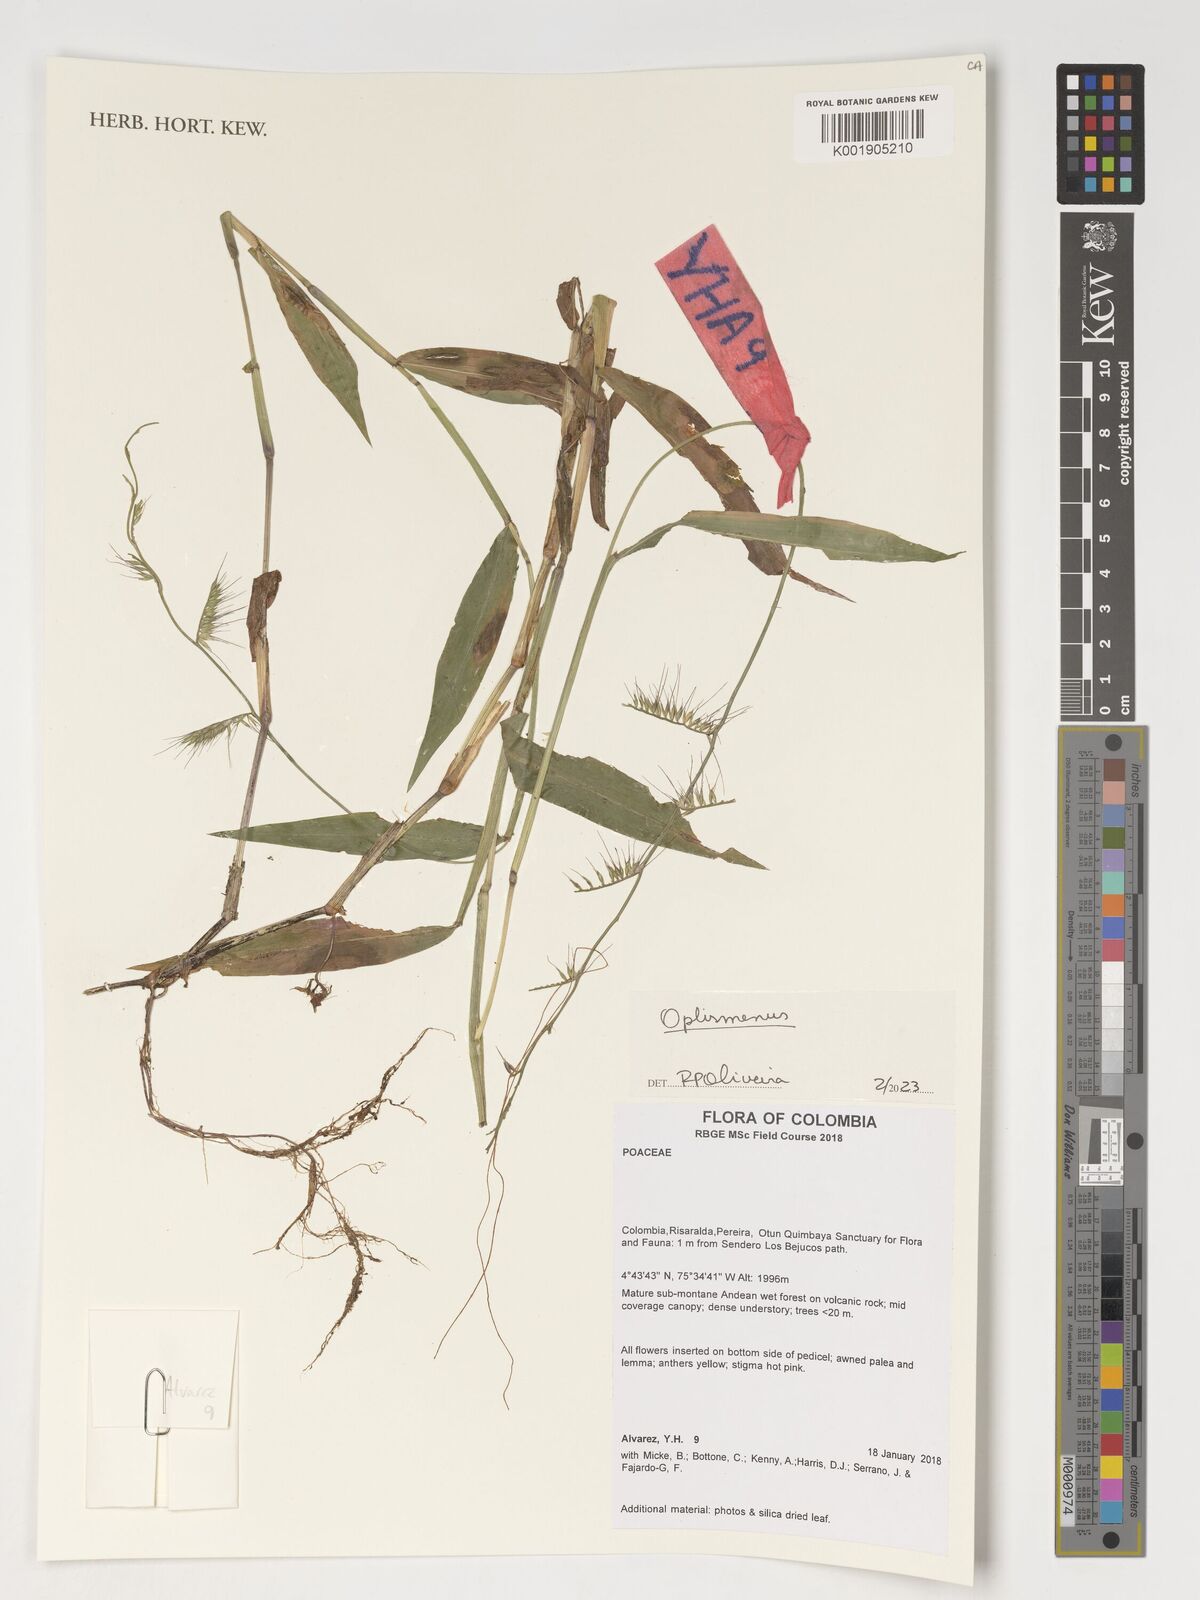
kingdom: Plantae
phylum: Tracheophyta
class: Liliopsida
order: Poales
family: Poaceae
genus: Oplismenus
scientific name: Oplismenus
